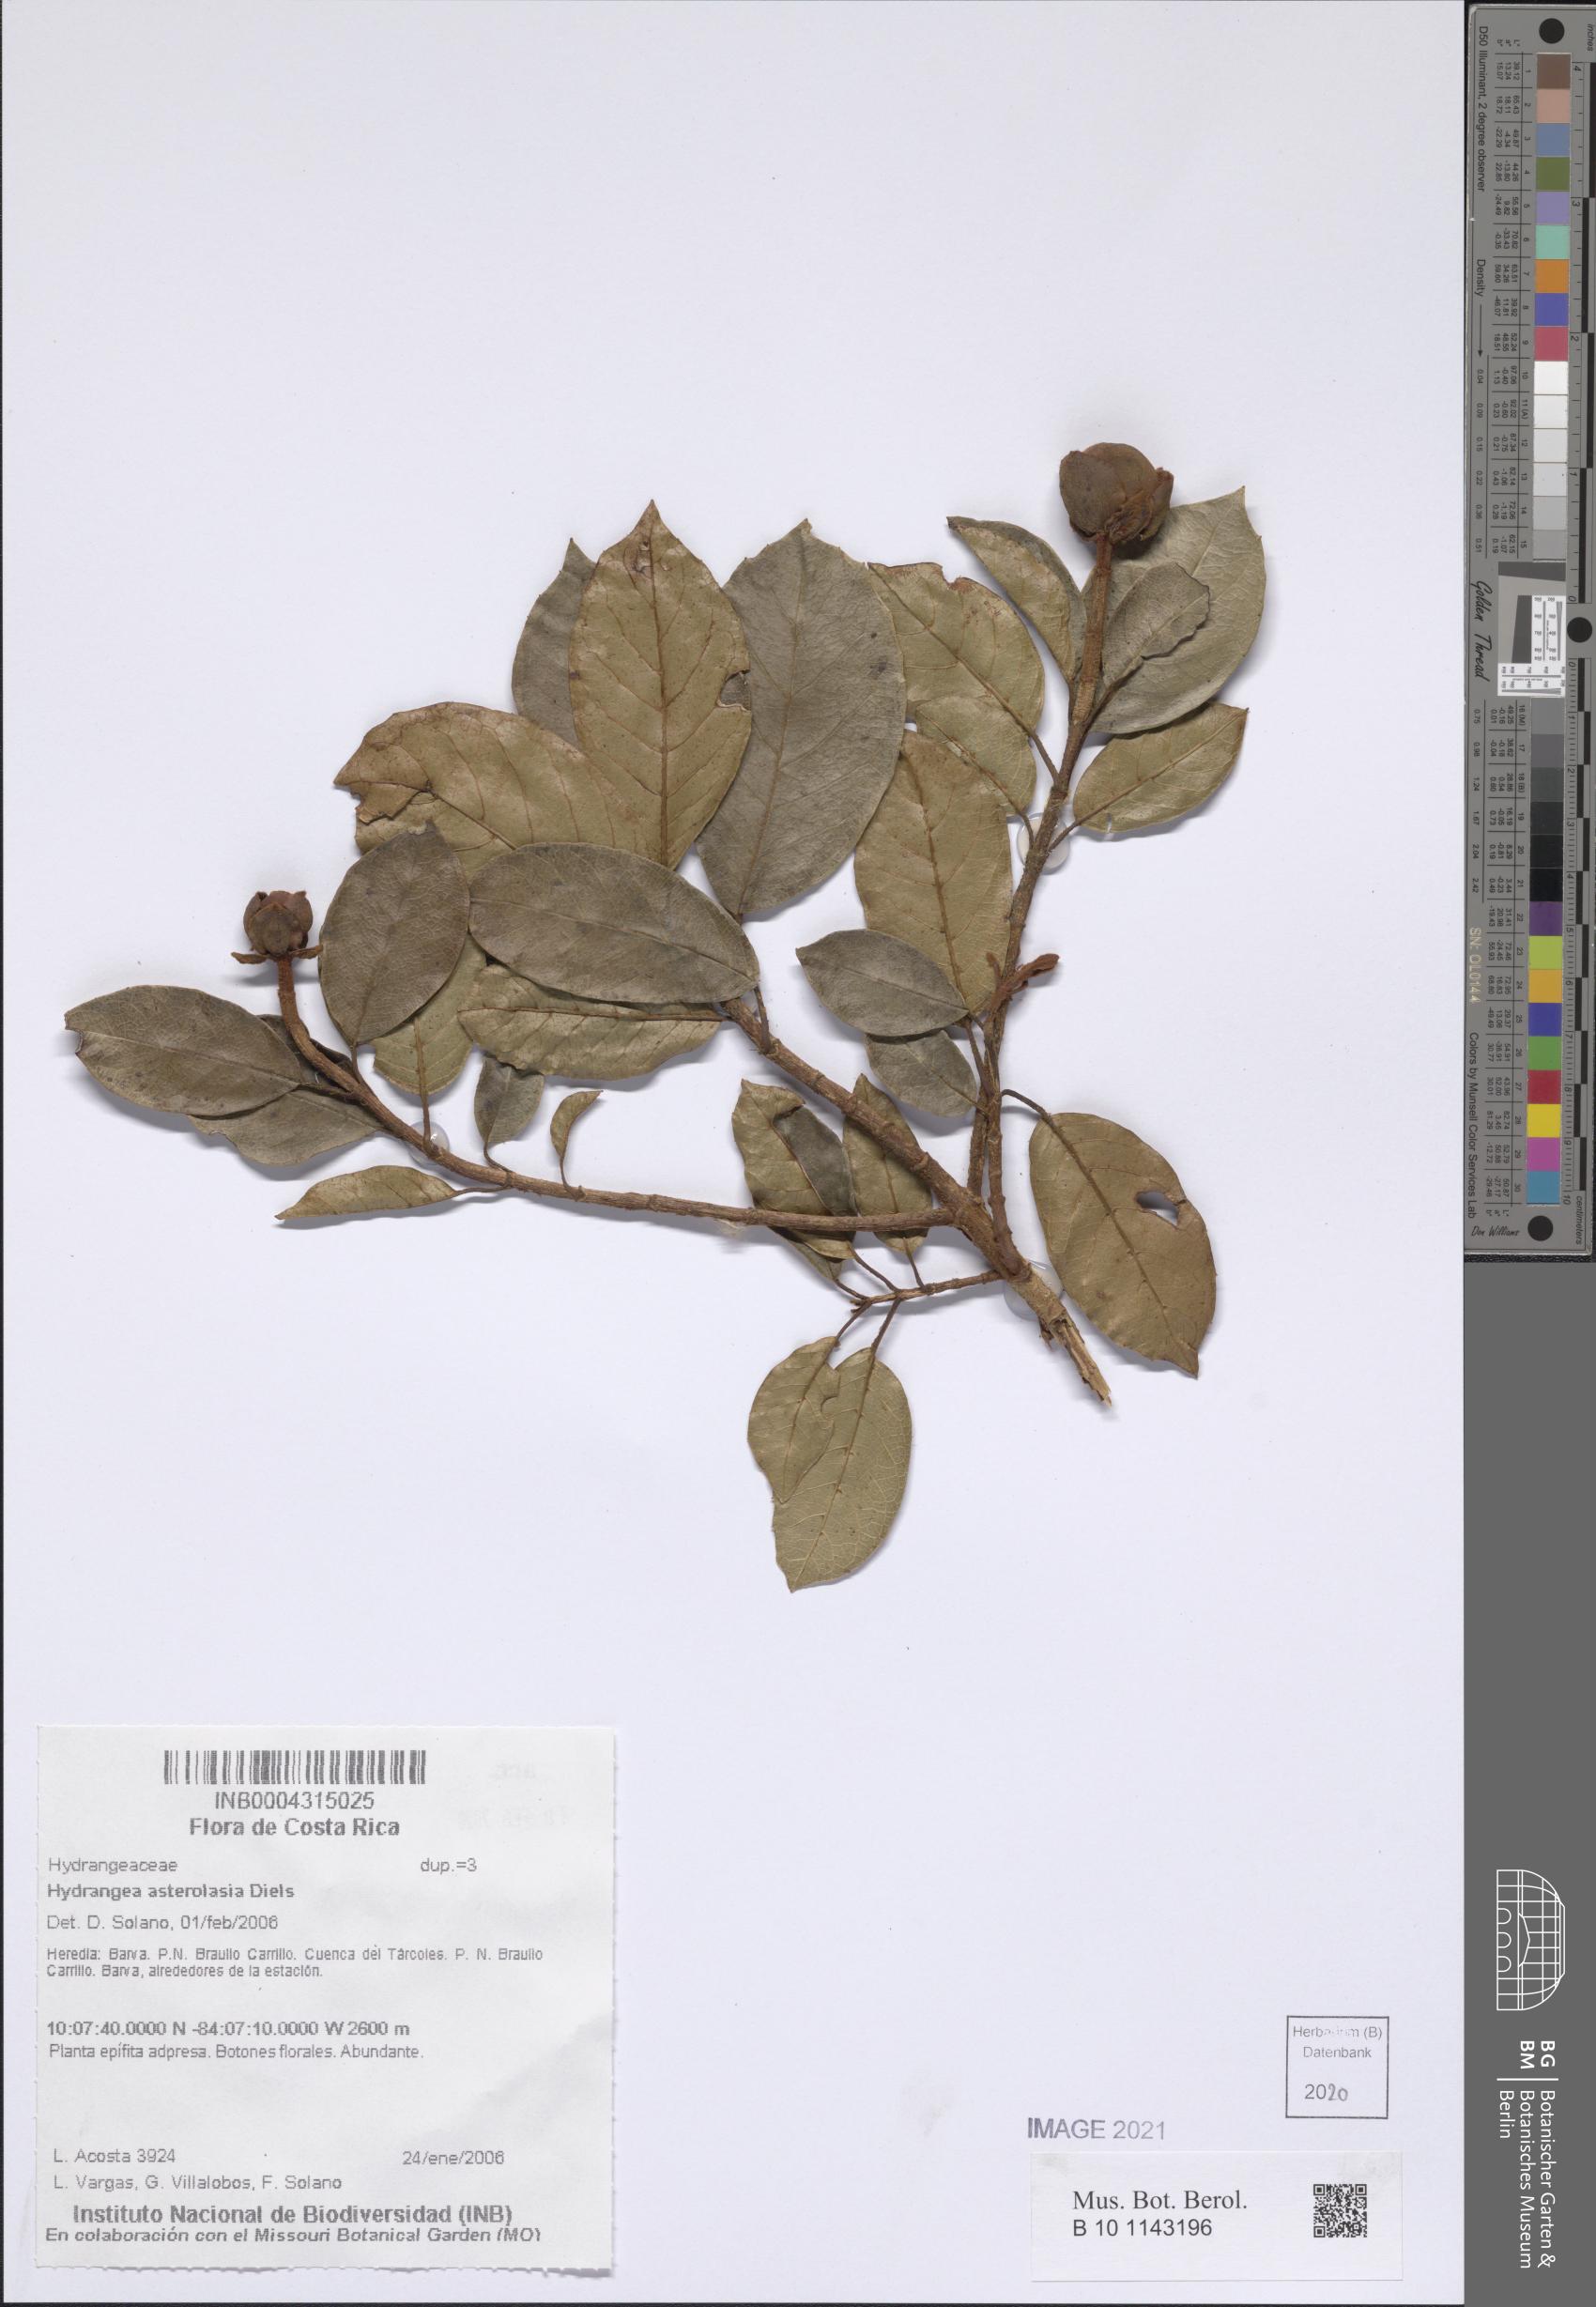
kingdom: Plantae
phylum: Tracheophyta
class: Magnoliopsida
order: Cornales
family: Hydrangeaceae
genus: Hydrangea
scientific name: Hydrangea asterolasia
